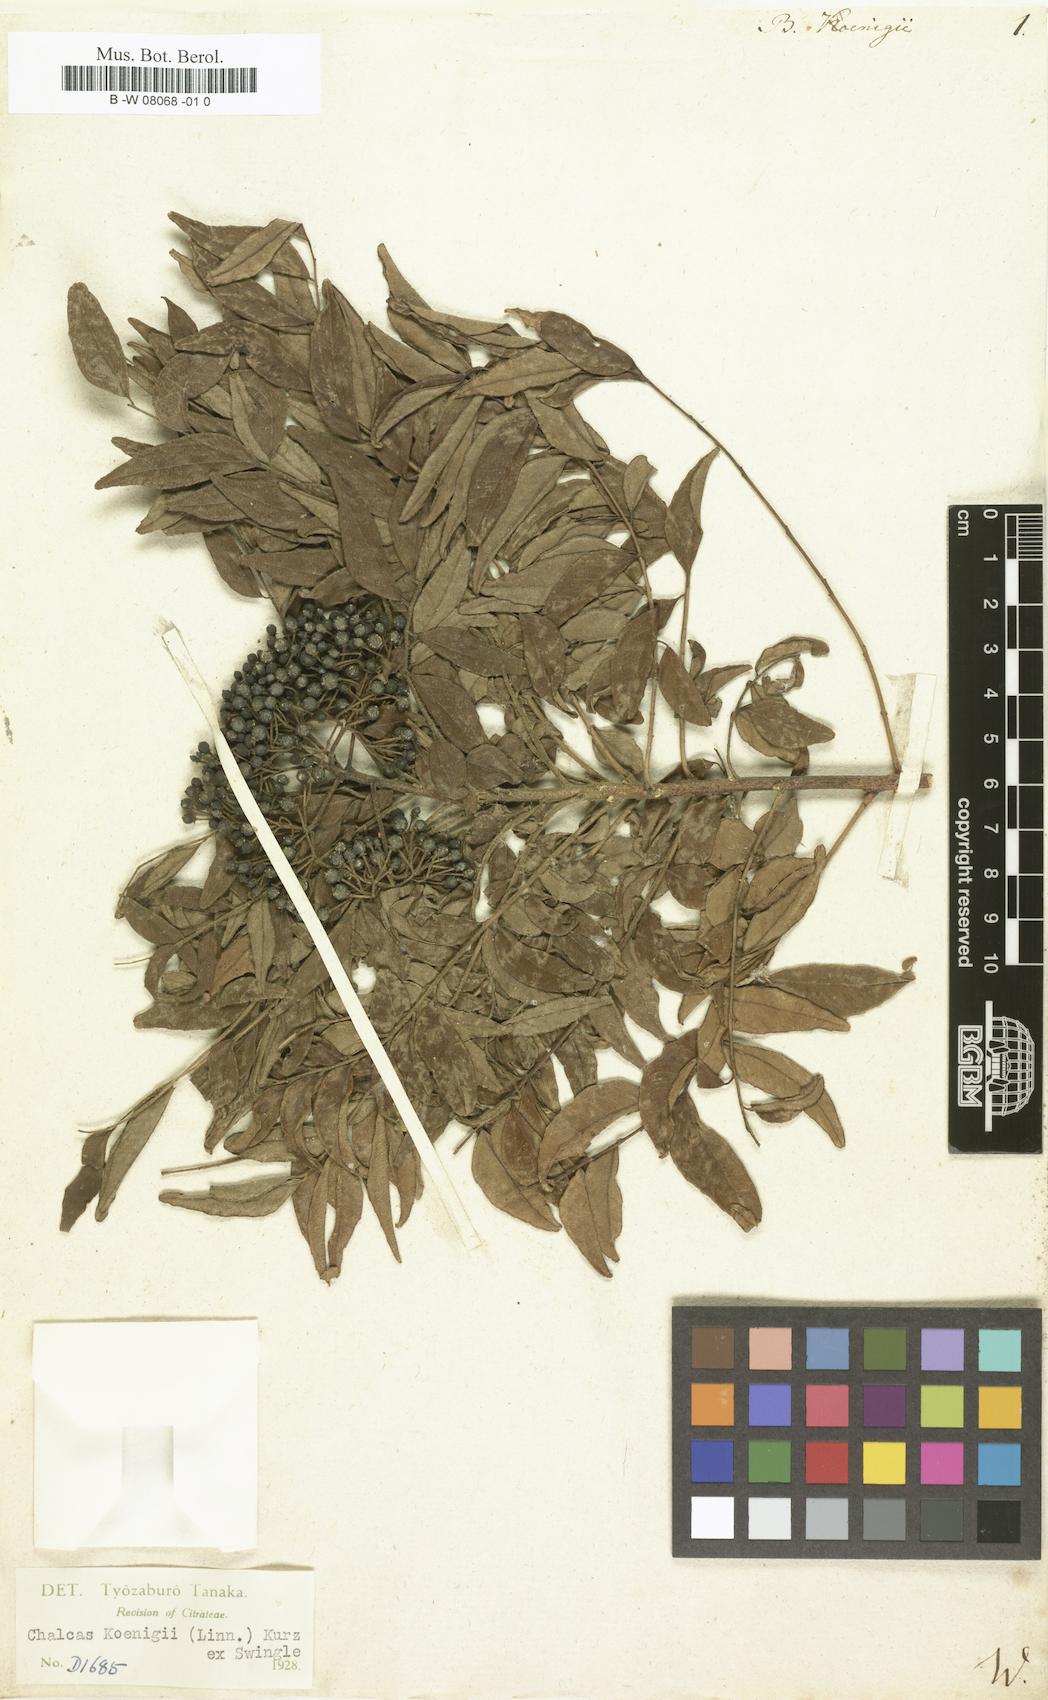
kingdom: Plantae
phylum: Tracheophyta
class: Magnoliopsida
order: Sapindales
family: Rutaceae
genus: Murraya
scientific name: Murraya koenigii
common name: Curry-plant
